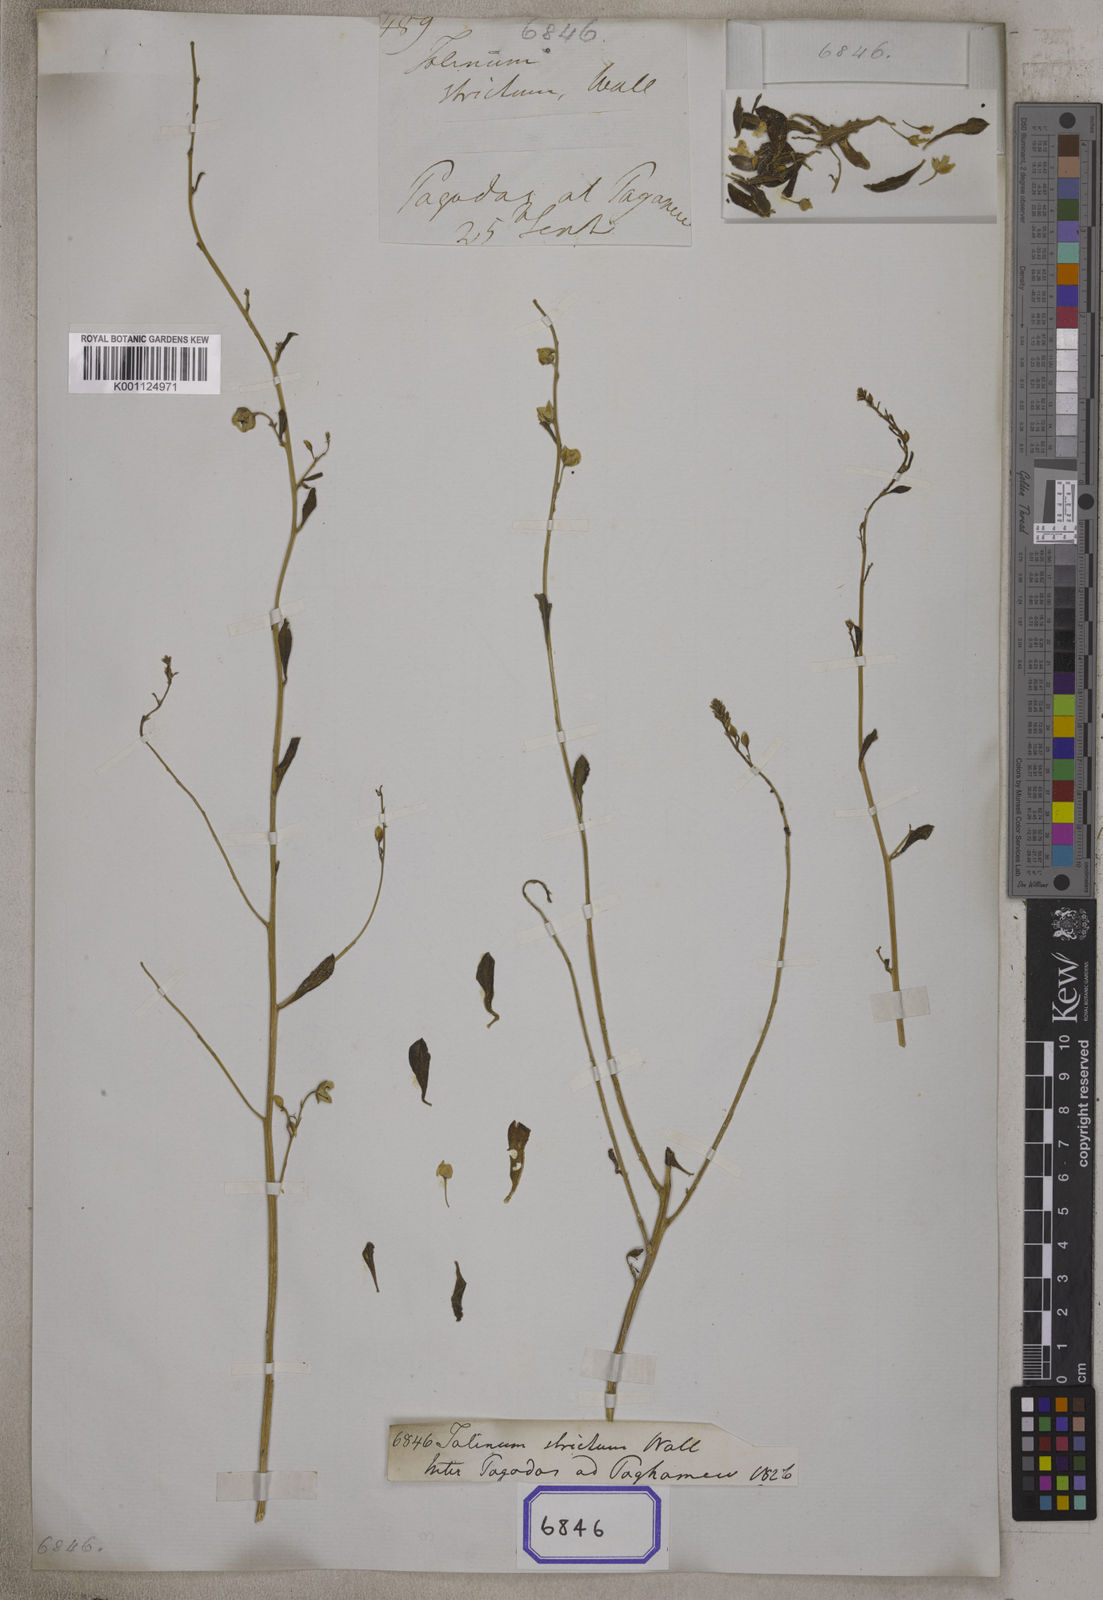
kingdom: Plantae
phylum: Tracheophyta
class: Magnoliopsida
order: Caryophyllales
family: Talinaceae
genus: Talinum
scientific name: Talinum portulacifolium
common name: Flameflower
